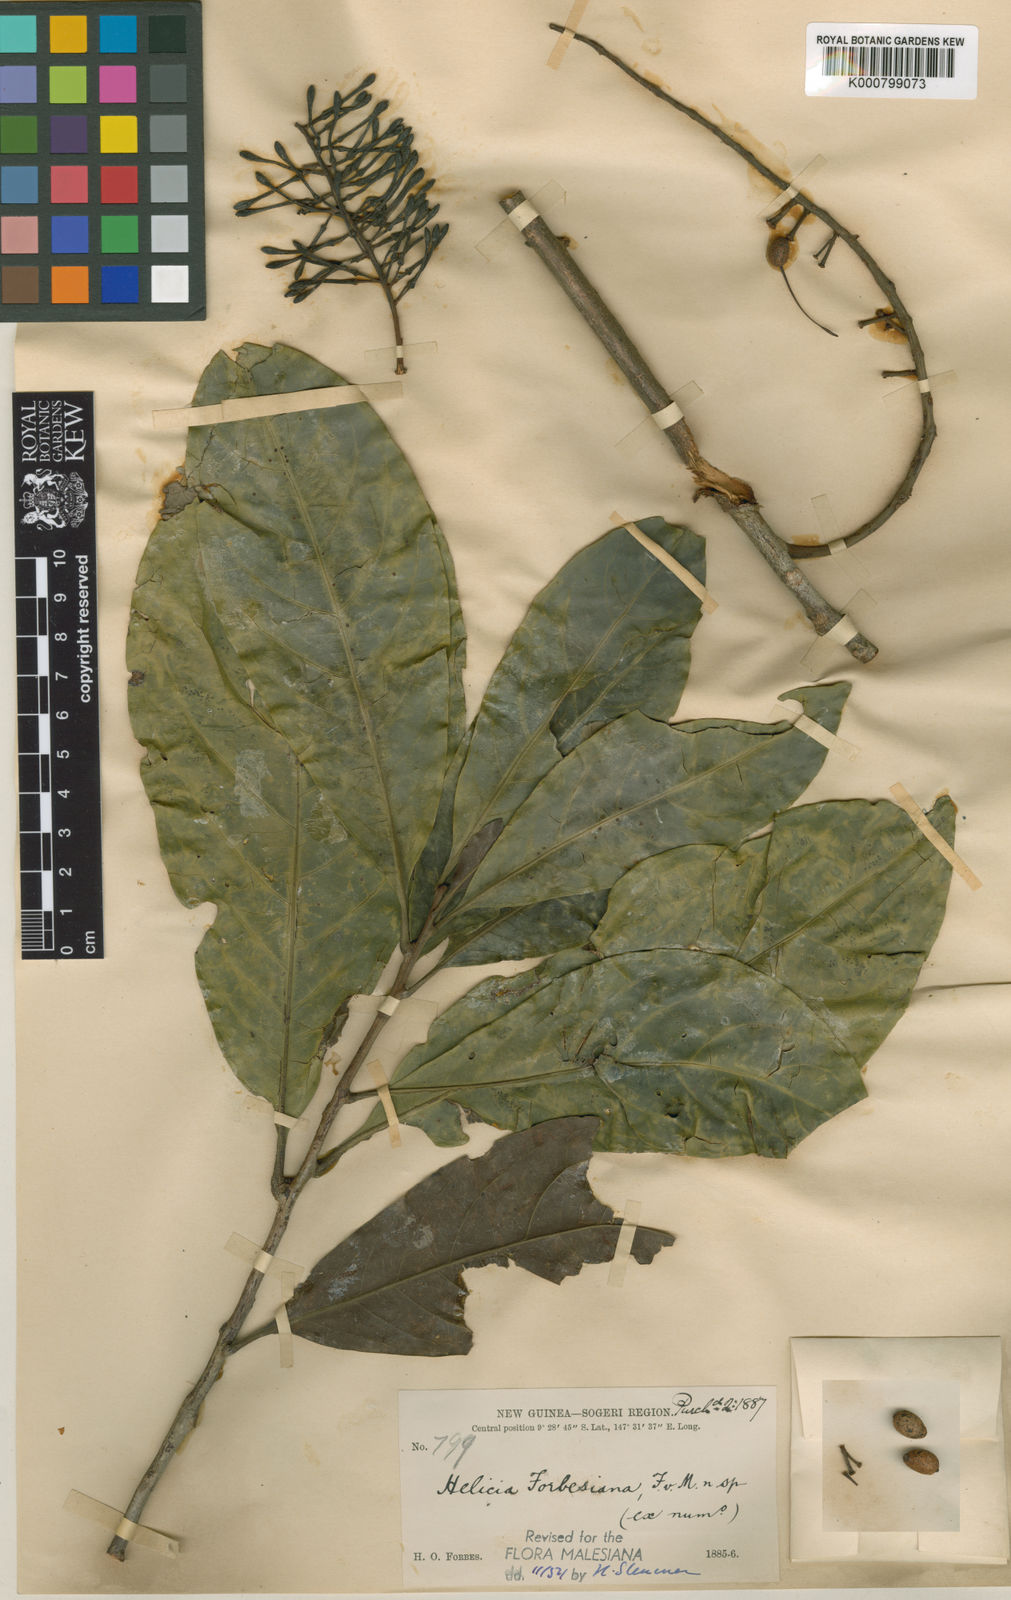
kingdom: Plantae
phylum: Tracheophyta
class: Magnoliopsida
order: Proteales
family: Proteaceae
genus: Helicia
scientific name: Helicia forbesiana
